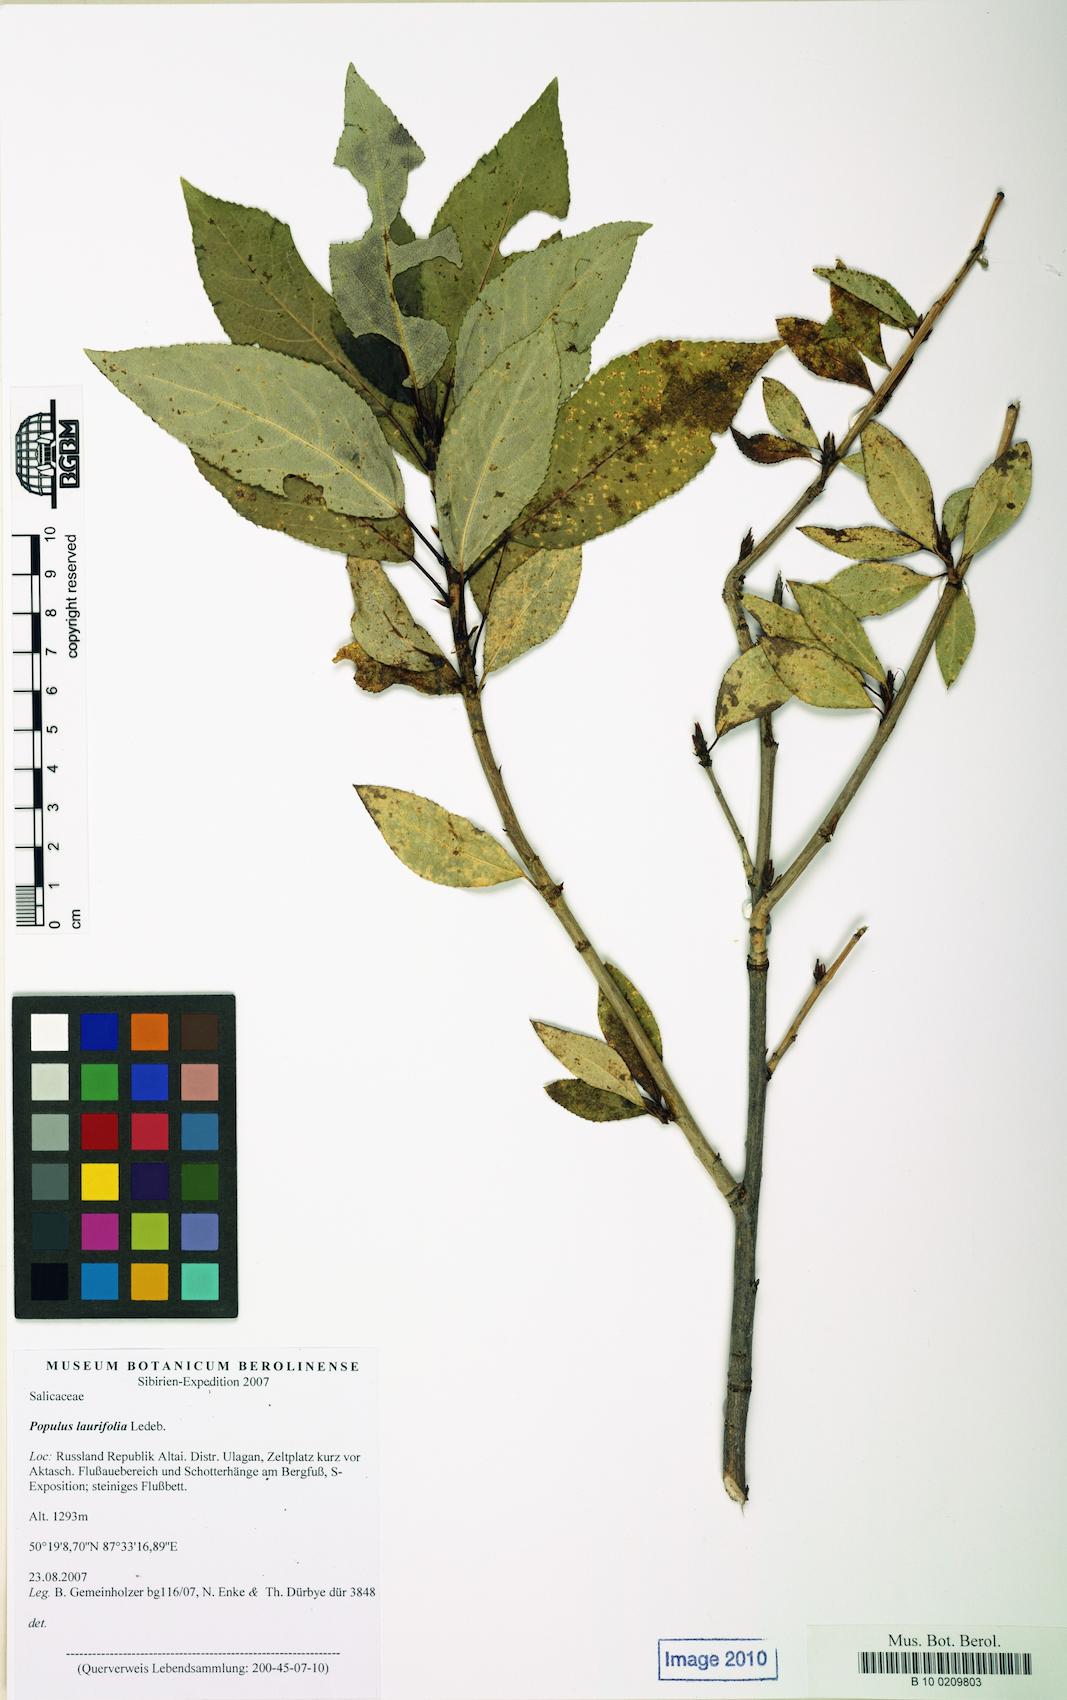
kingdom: Plantae
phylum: Tracheophyta
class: Magnoliopsida
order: Malpighiales
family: Salicaceae
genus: Populus
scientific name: Populus laurifolia
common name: Laurel-leaf poplar
